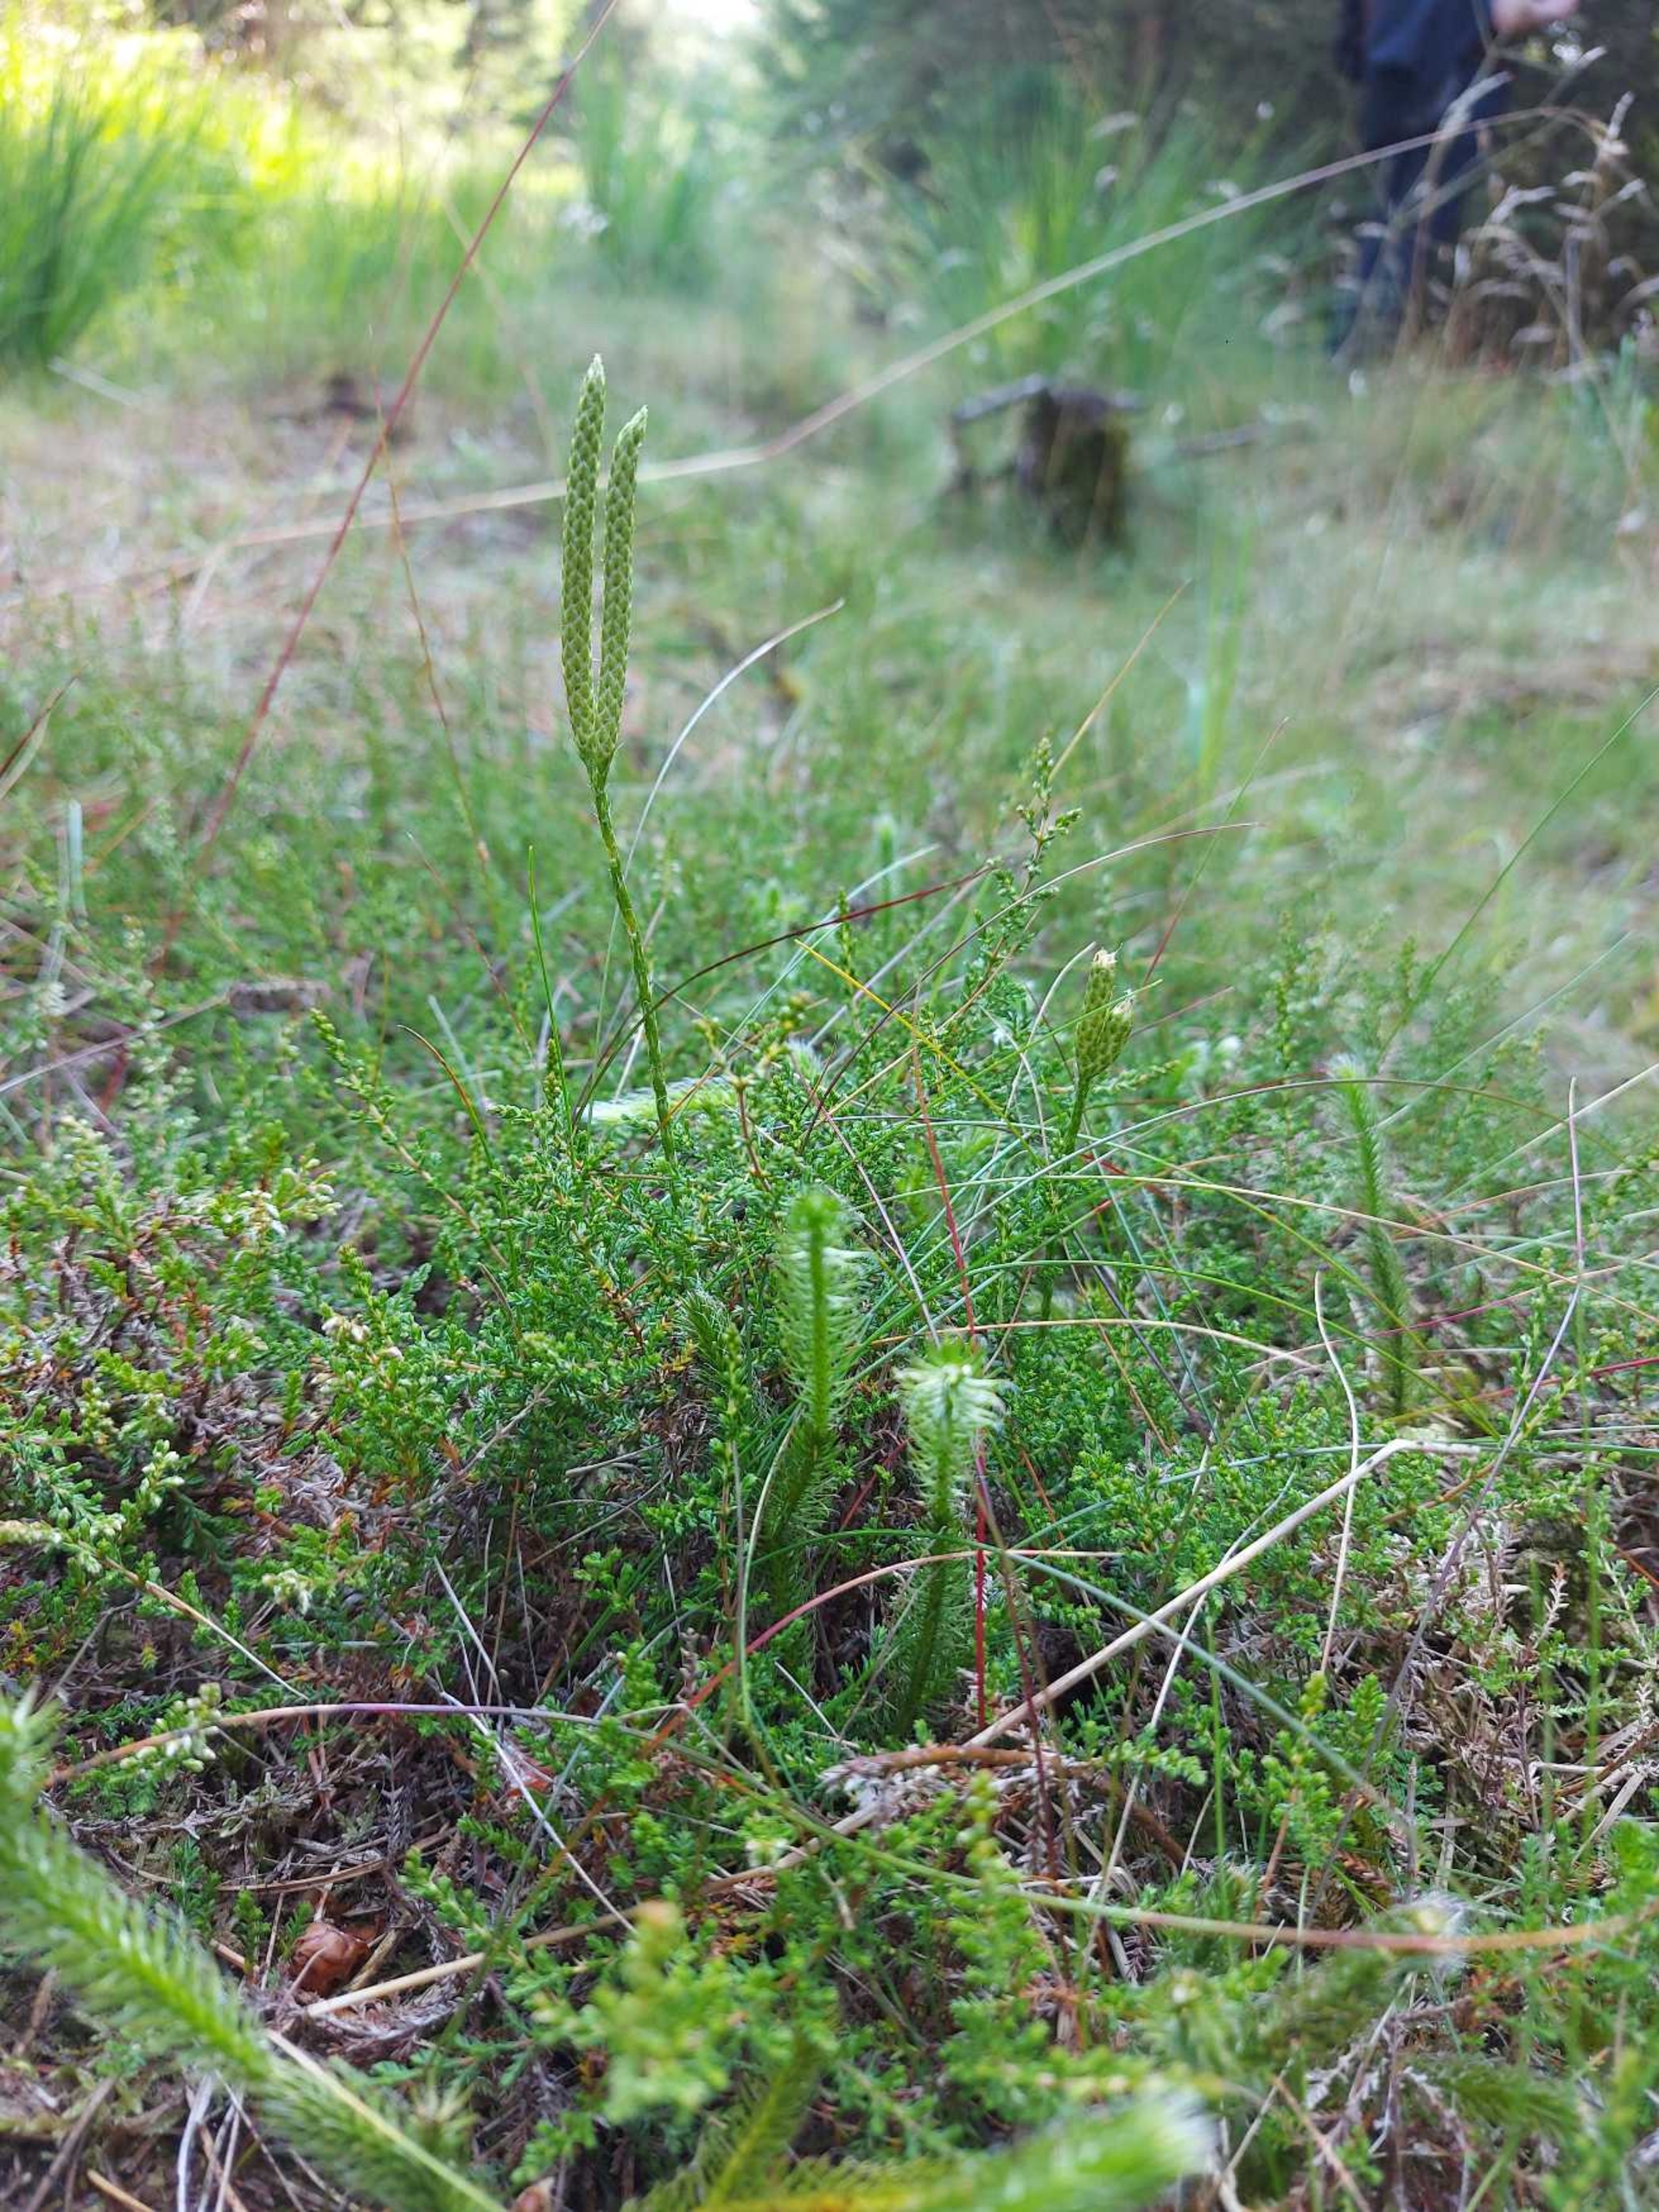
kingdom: Plantae
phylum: Tracheophyta
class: Lycopodiopsida
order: Lycopodiales
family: Lycopodiaceae
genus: Lycopodium
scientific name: Lycopodium clavatum
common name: Almindelig ulvefod
